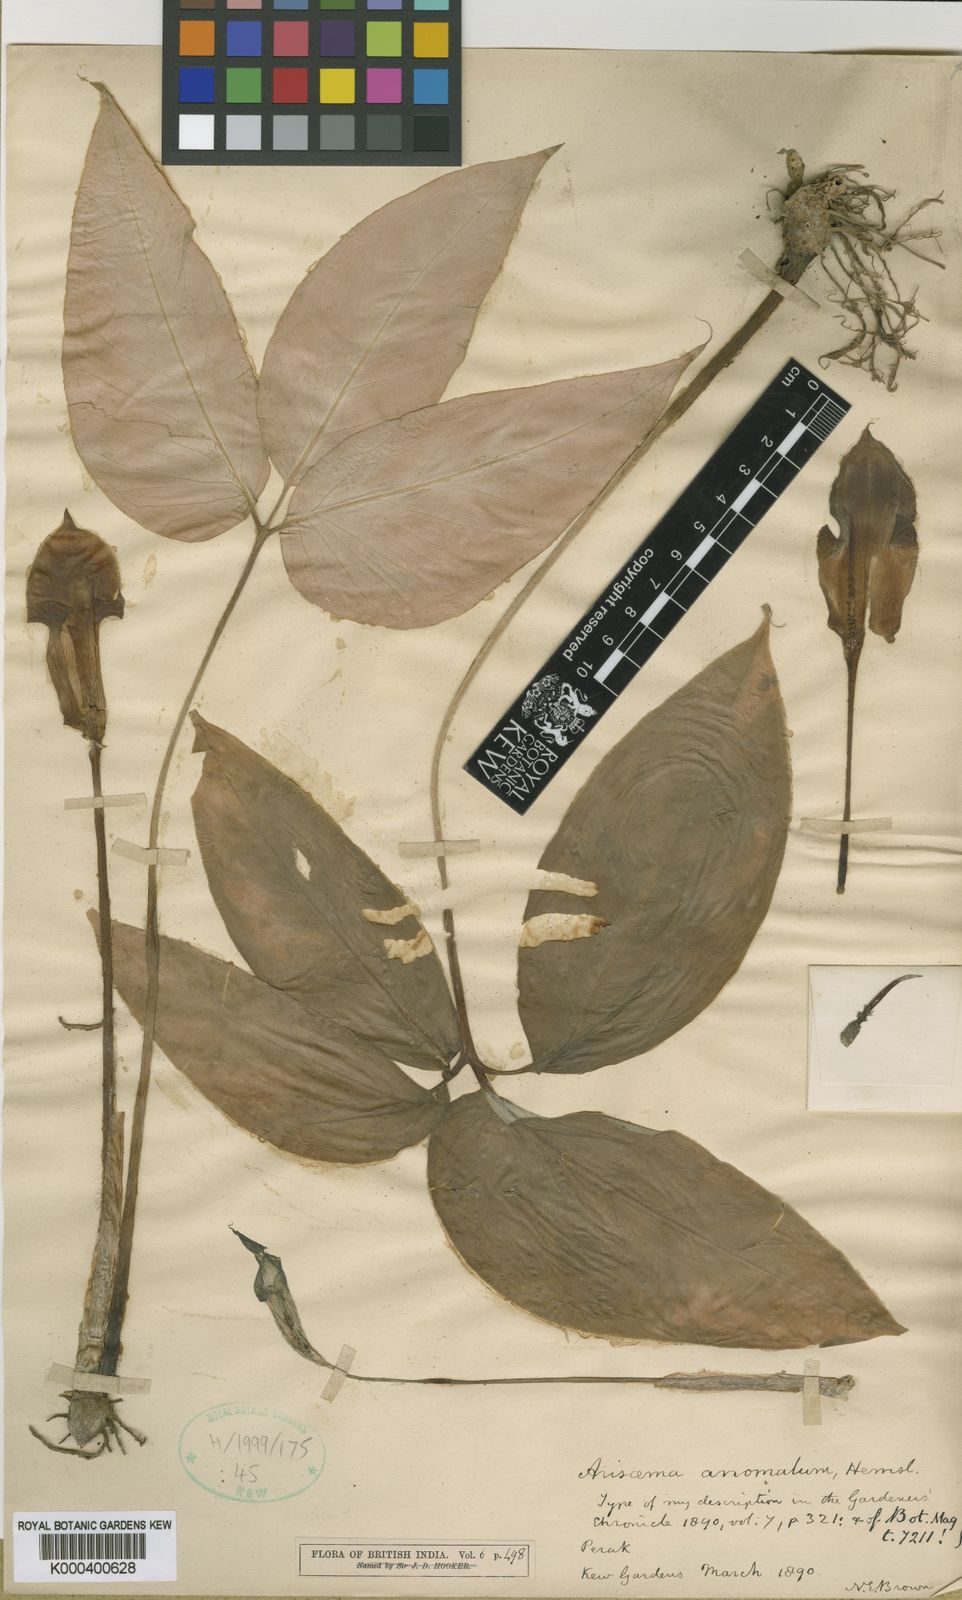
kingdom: Plantae
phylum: Tracheophyta
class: Liliopsida
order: Alismatales
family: Araceae
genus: Arisaema
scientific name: Arisaema anomalum
